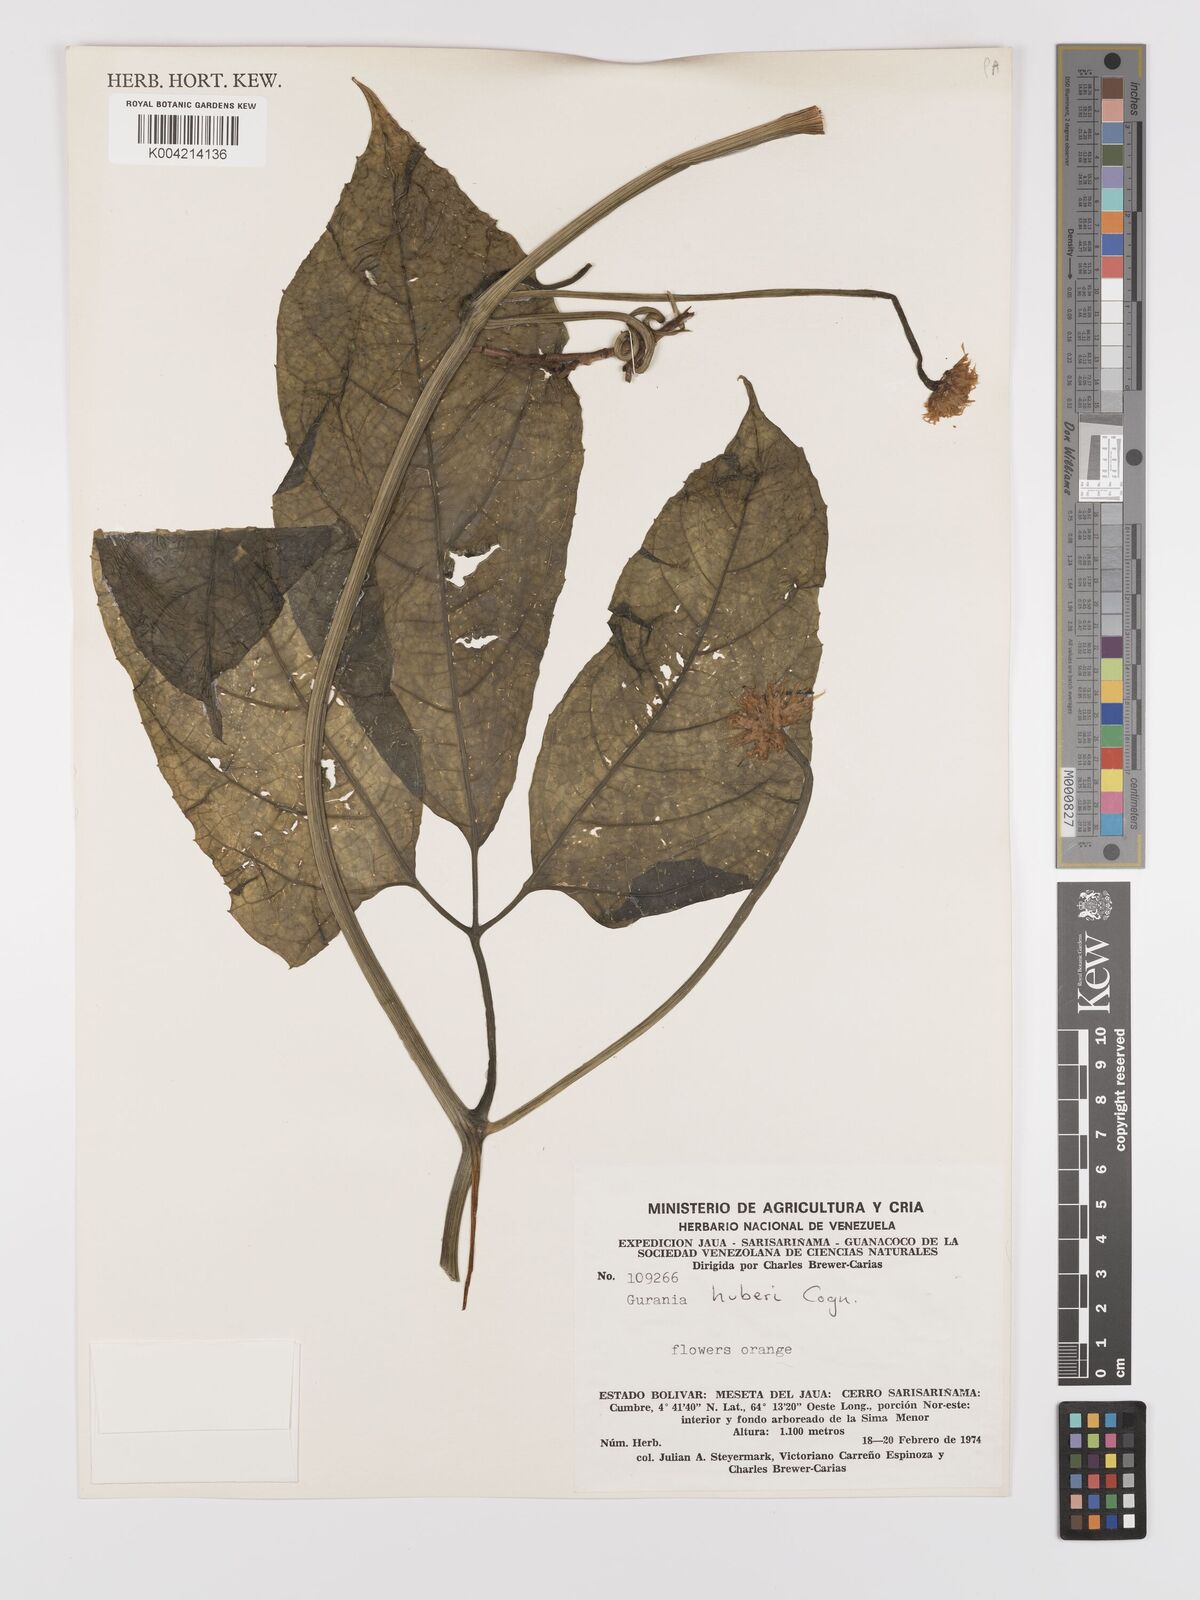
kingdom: Plantae
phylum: Tracheophyta
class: Magnoliopsida
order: Cucurbitales
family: Cucurbitaceae
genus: Gurania
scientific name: Gurania huberi
